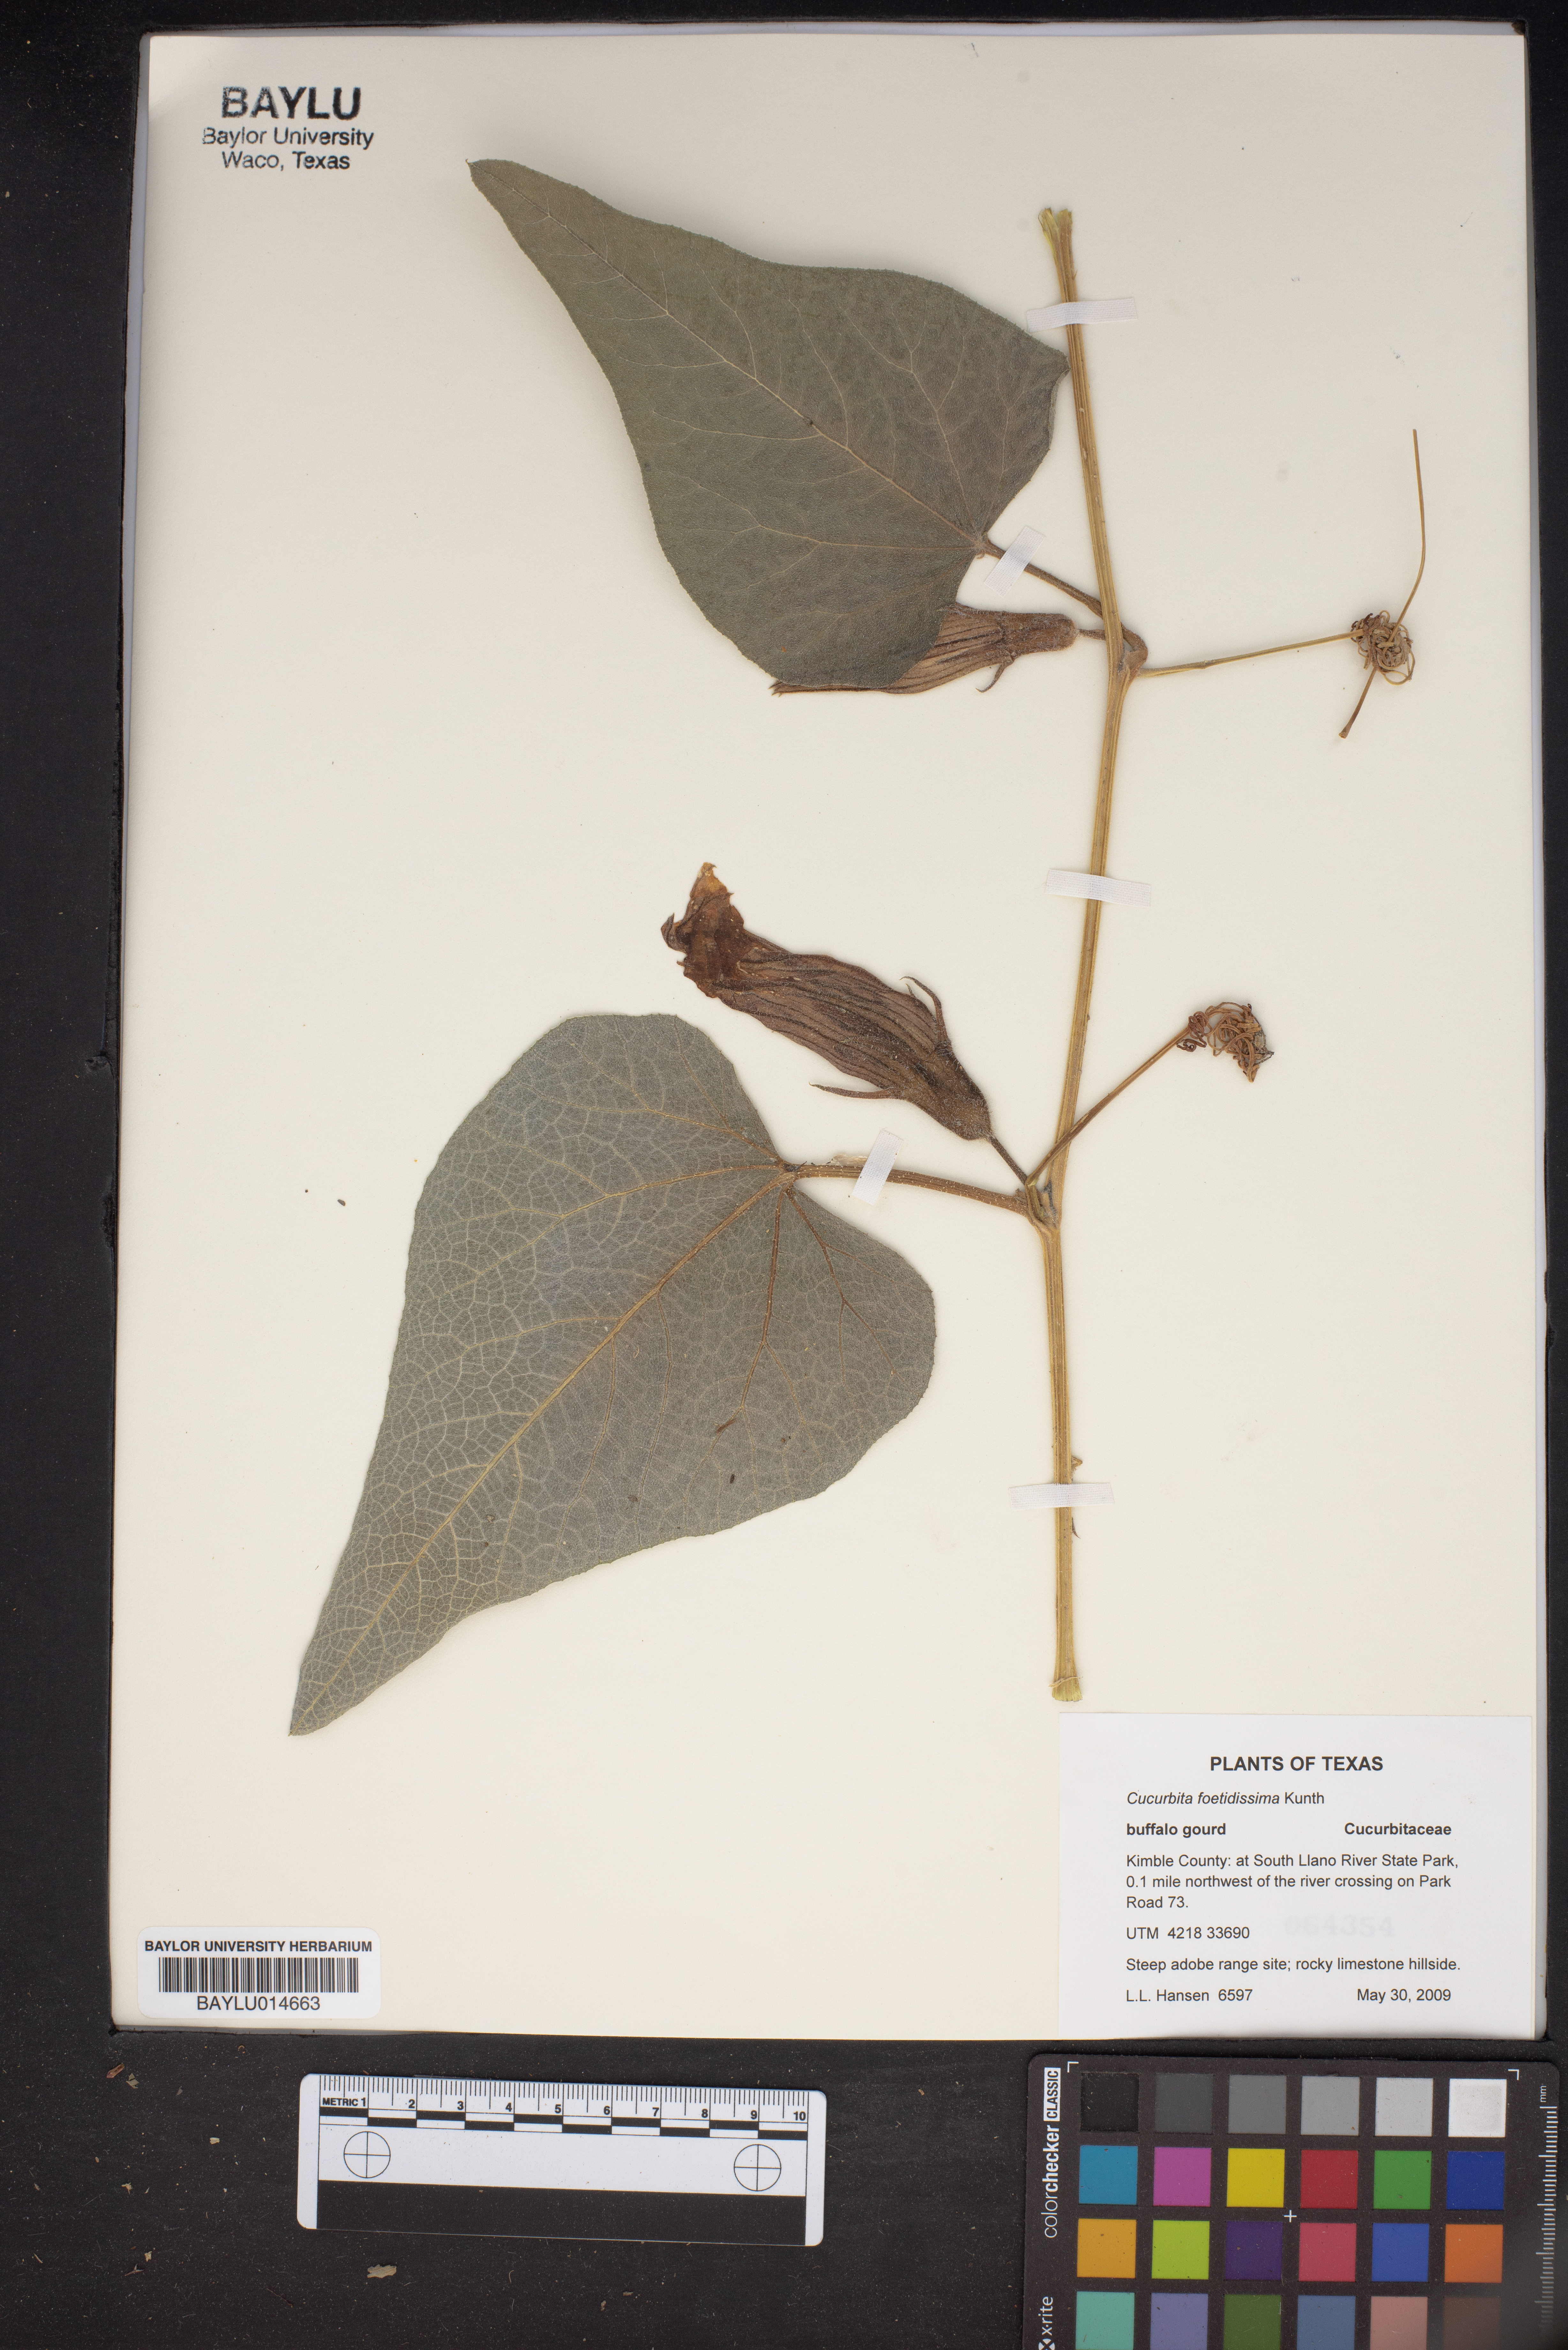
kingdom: Plantae
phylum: Tracheophyta
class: Magnoliopsida
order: Cucurbitales
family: Cucurbitaceae
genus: Cucurbita
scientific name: Cucurbita foetidissima
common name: Buffalo gourd
